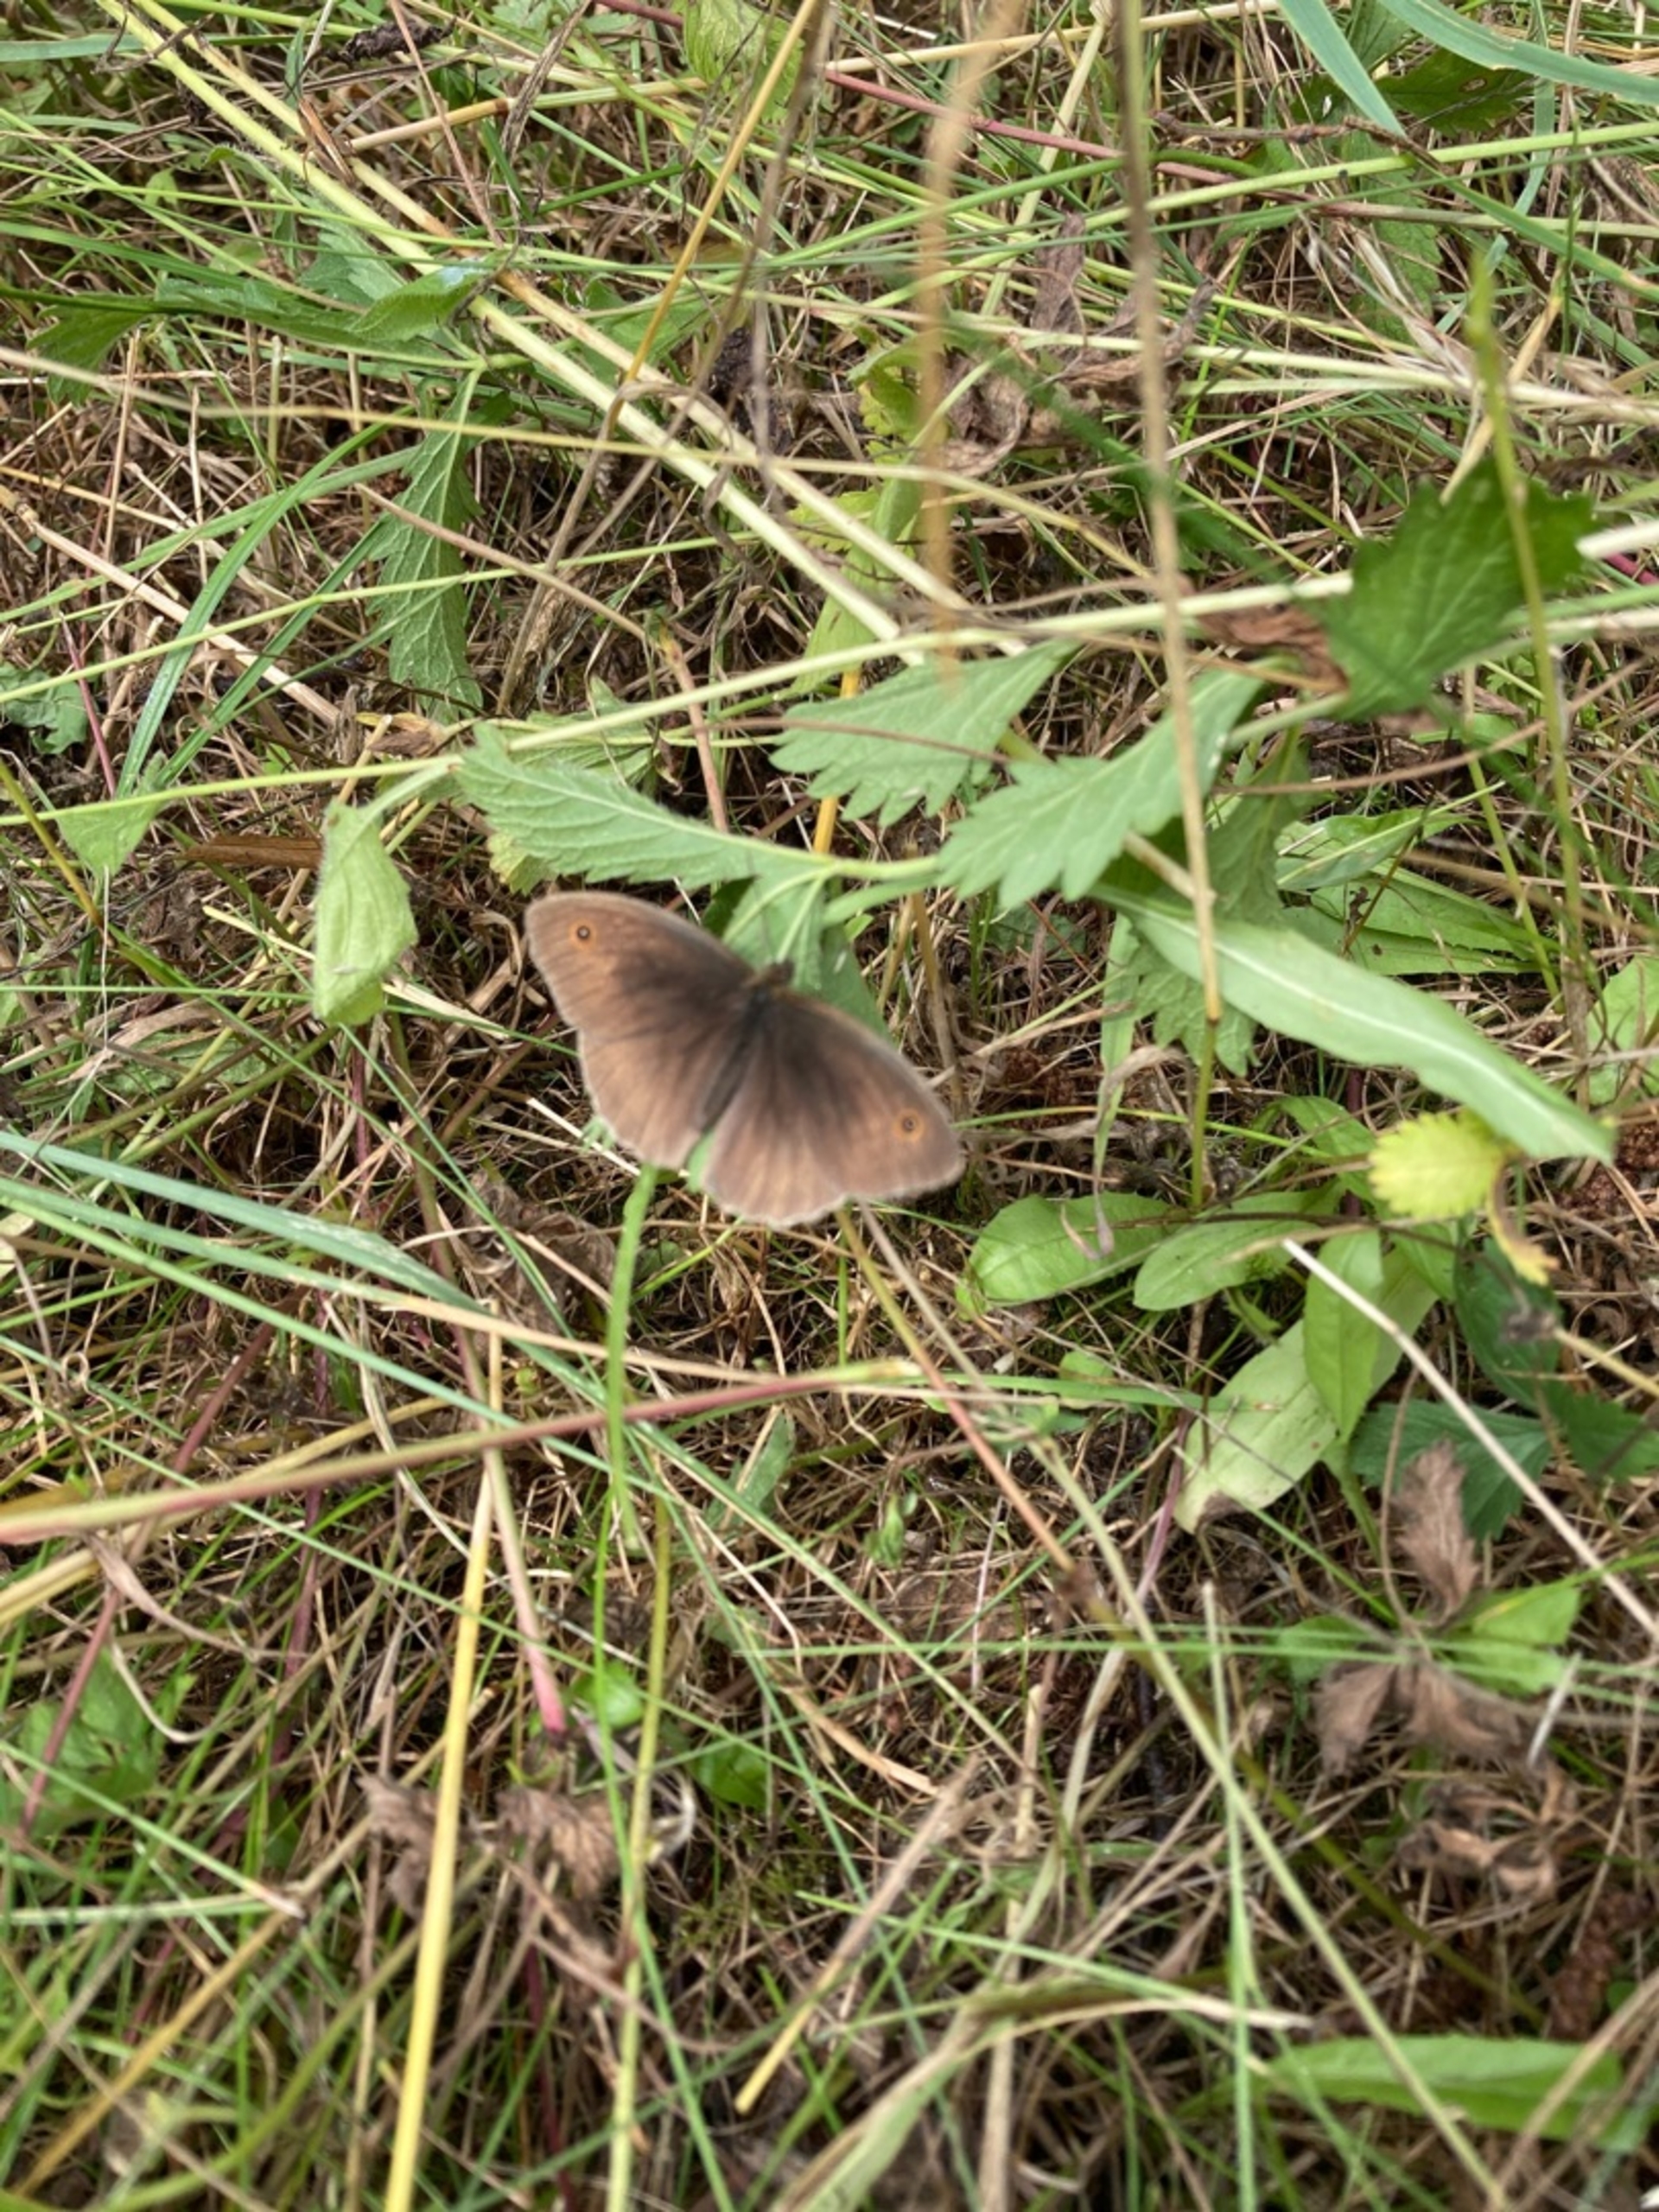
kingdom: Animalia
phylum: Arthropoda
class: Insecta
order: Lepidoptera
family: Nymphalidae
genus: Maniola
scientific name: Maniola jurtina
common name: Græsrandøje
